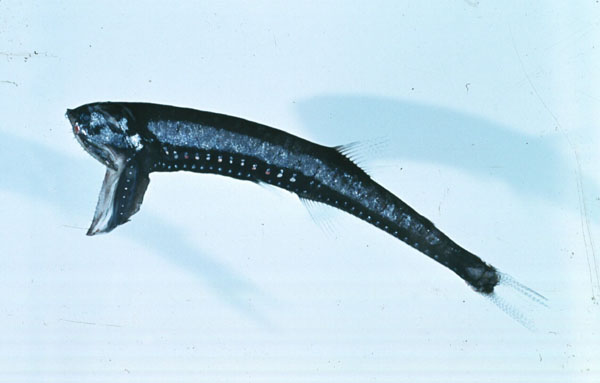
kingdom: Animalia
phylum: Chordata
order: Stomiiformes
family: Gonostomatidae
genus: Sigmops
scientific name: Sigmops elongatus
